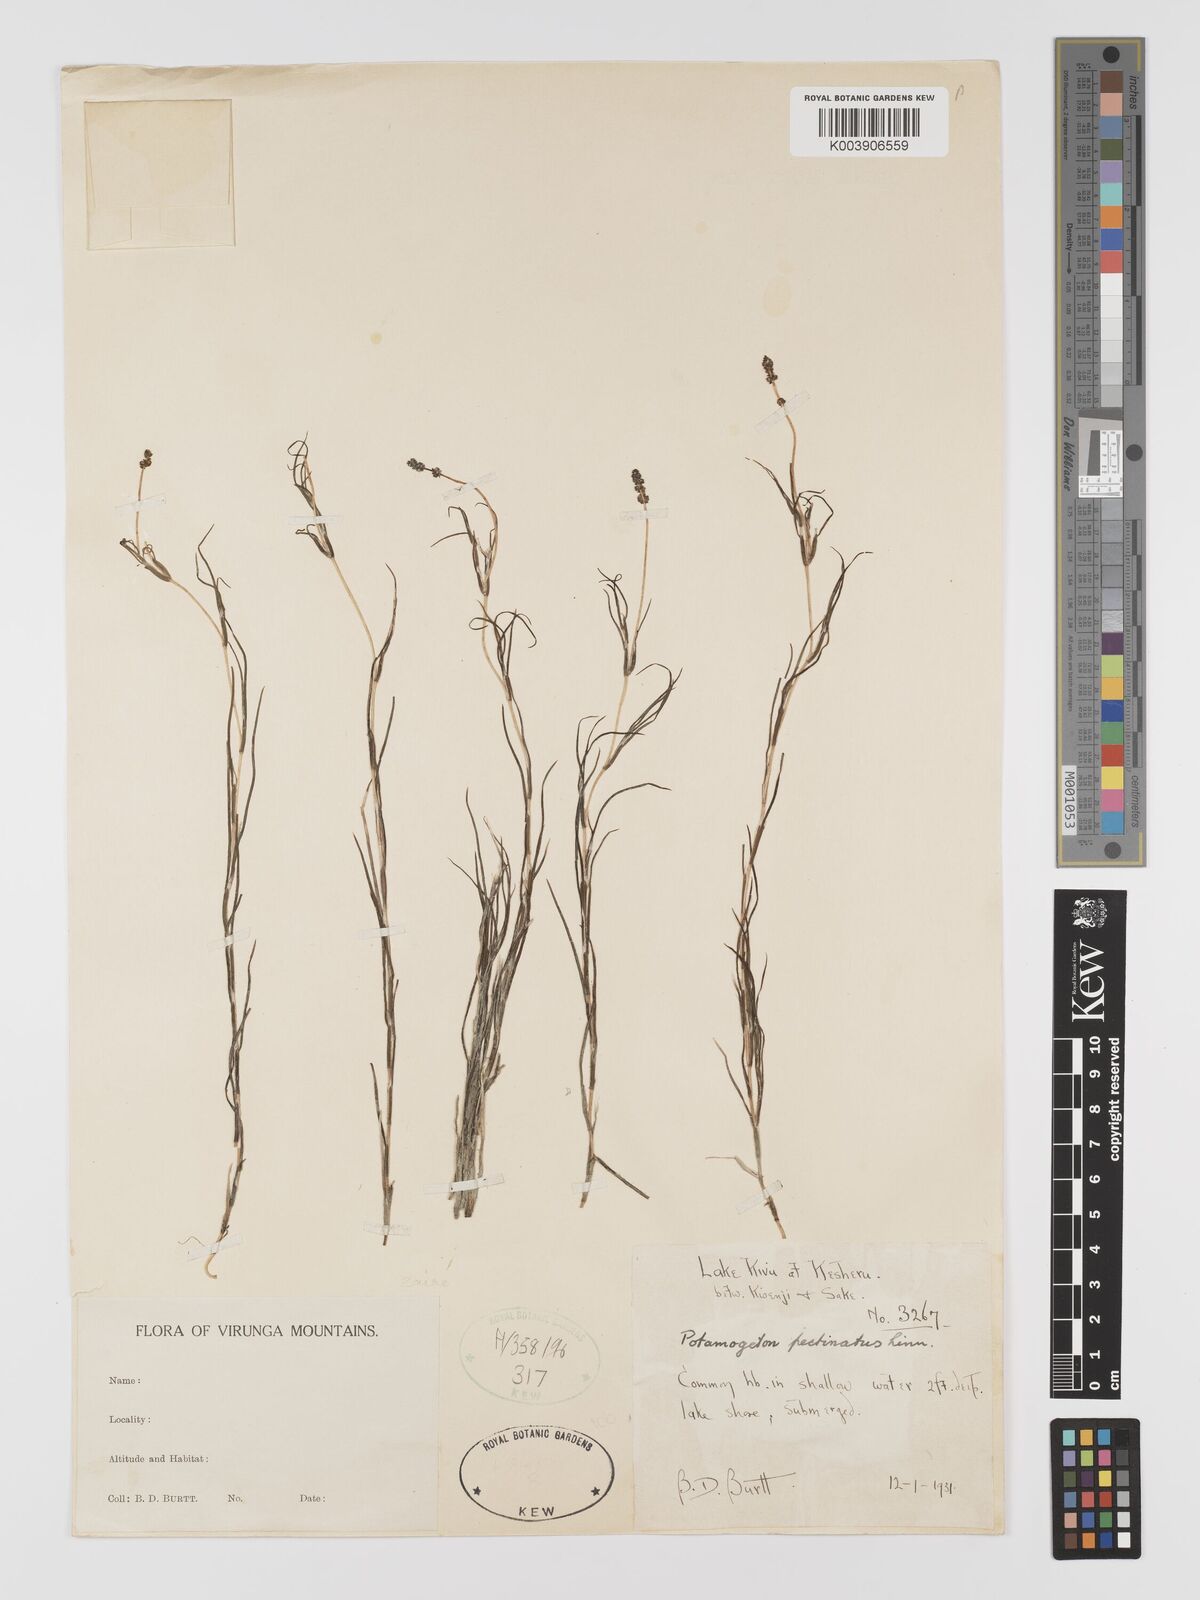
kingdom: Plantae
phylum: Tracheophyta
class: Liliopsida
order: Alismatales
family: Potamogetonaceae
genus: Stuckenia
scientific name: Stuckenia pectinata
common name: Sago pondweed
